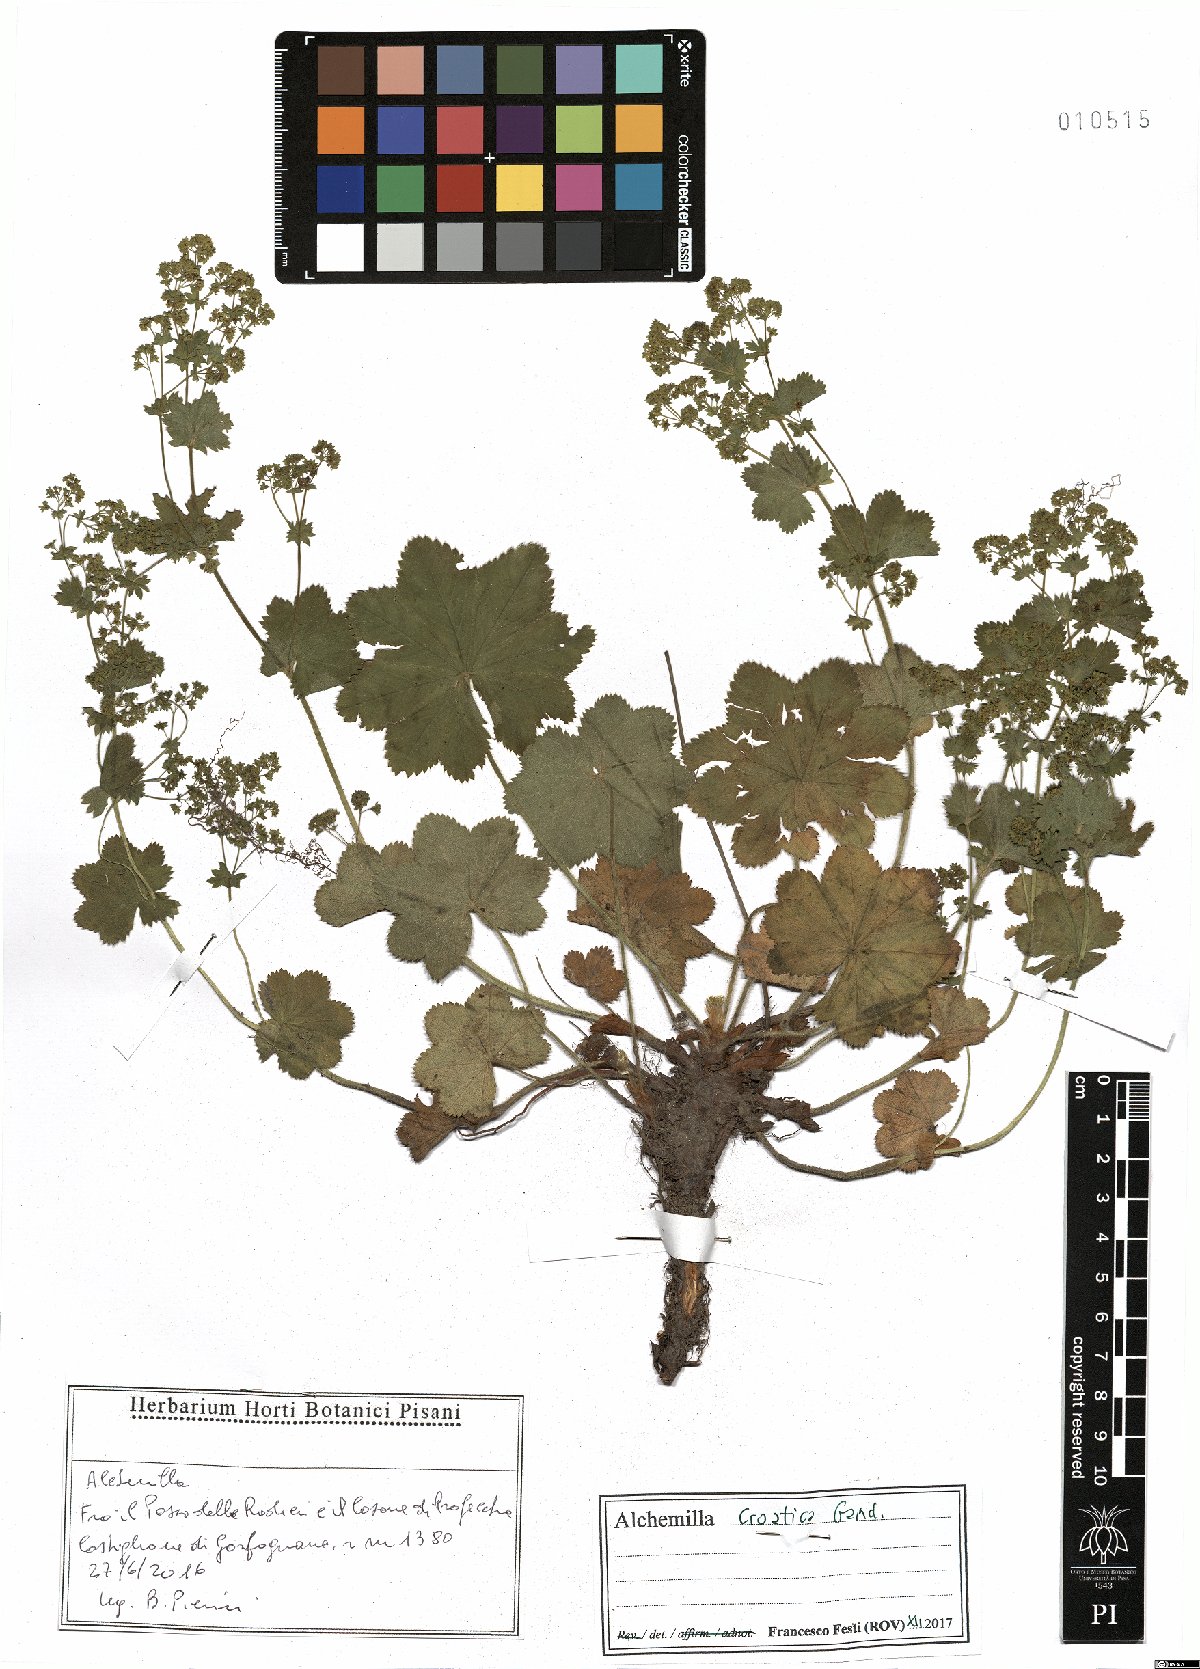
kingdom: Plantae
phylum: Tracheophyta
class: Magnoliopsida
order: Rosales
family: Rosaceae
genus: Alchemilla
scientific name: Alchemilla croatica
